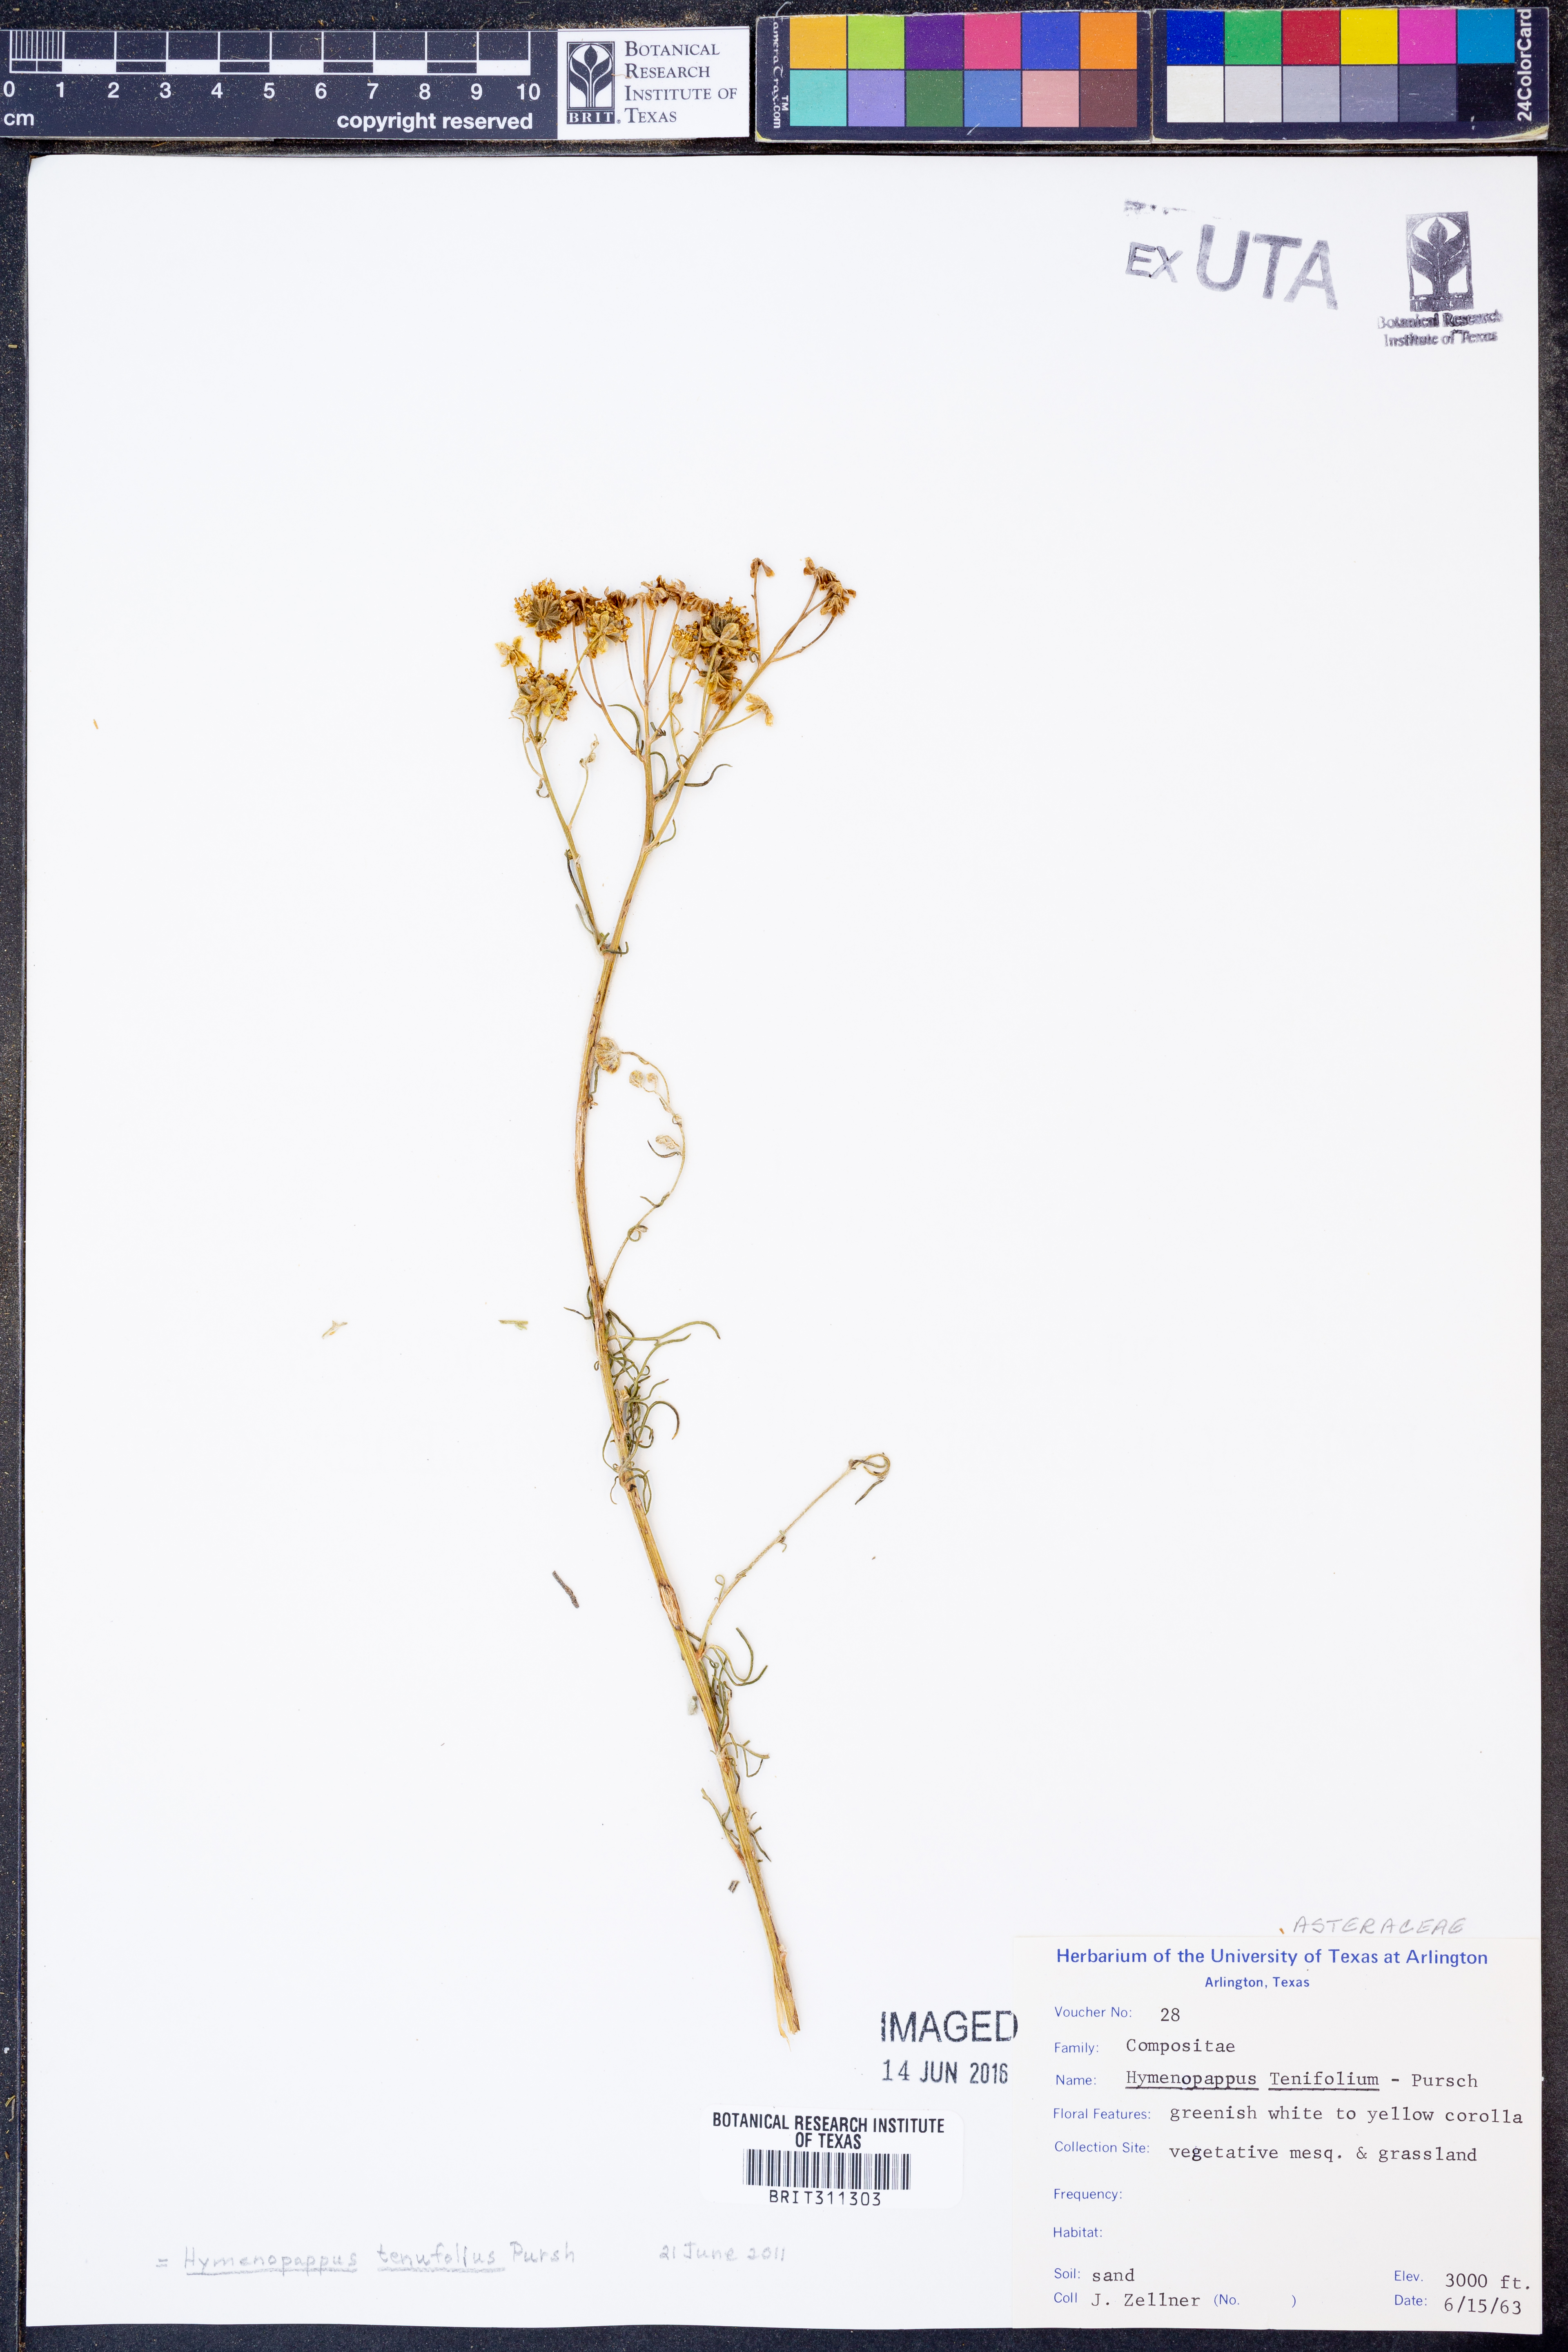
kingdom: Plantae
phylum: Tracheophyta
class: Magnoliopsida
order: Asterales
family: Asteraceae
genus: Hymenopappus
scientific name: Hymenopappus tenuifolius
